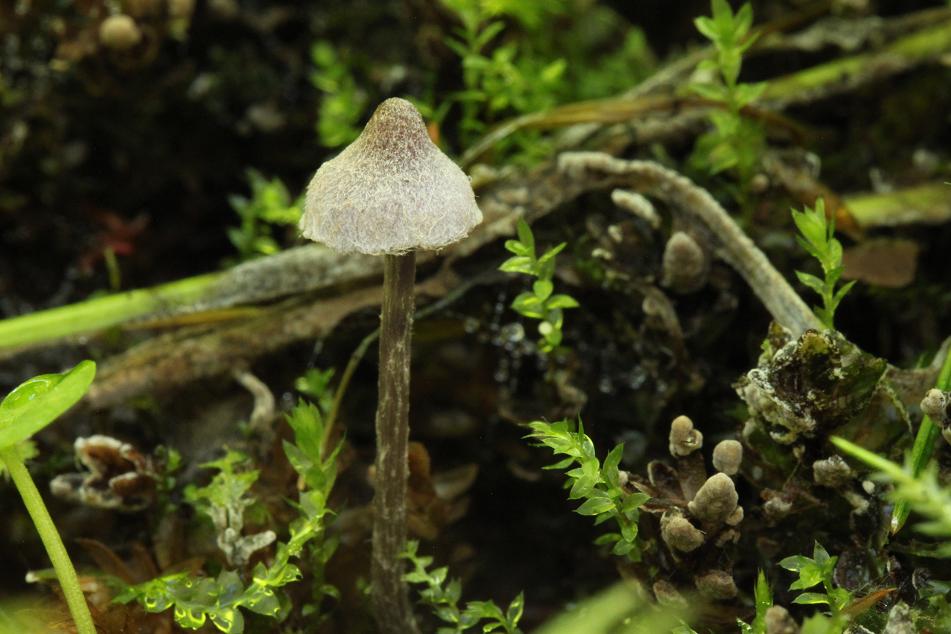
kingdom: Fungi
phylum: Basidiomycota
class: Agaricomycetes
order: Agaricales
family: Cortinariaceae
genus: Cortinarius
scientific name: Cortinarius bibulus
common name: smuk slørhat
